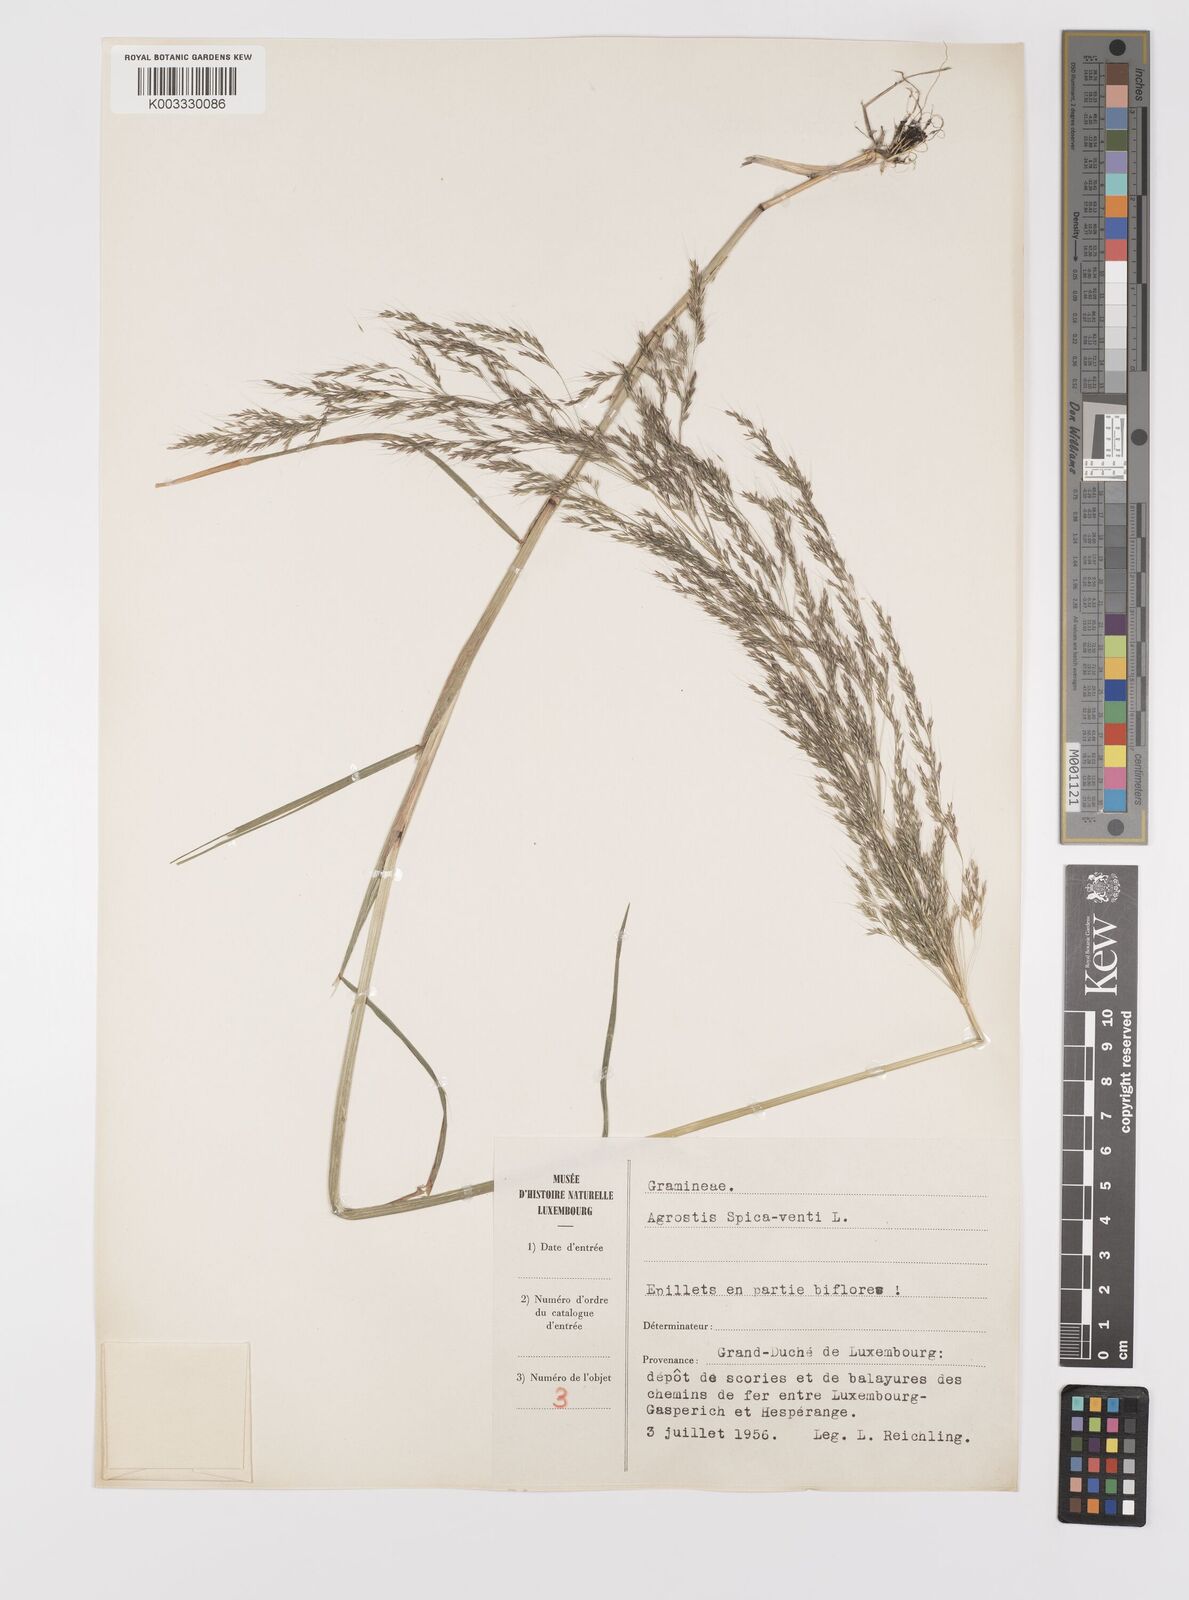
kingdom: Plantae
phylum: Tracheophyta
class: Liliopsida
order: Poales
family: Poaceae
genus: Apera
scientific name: Apera spica-venti
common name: Loose silky-bent
